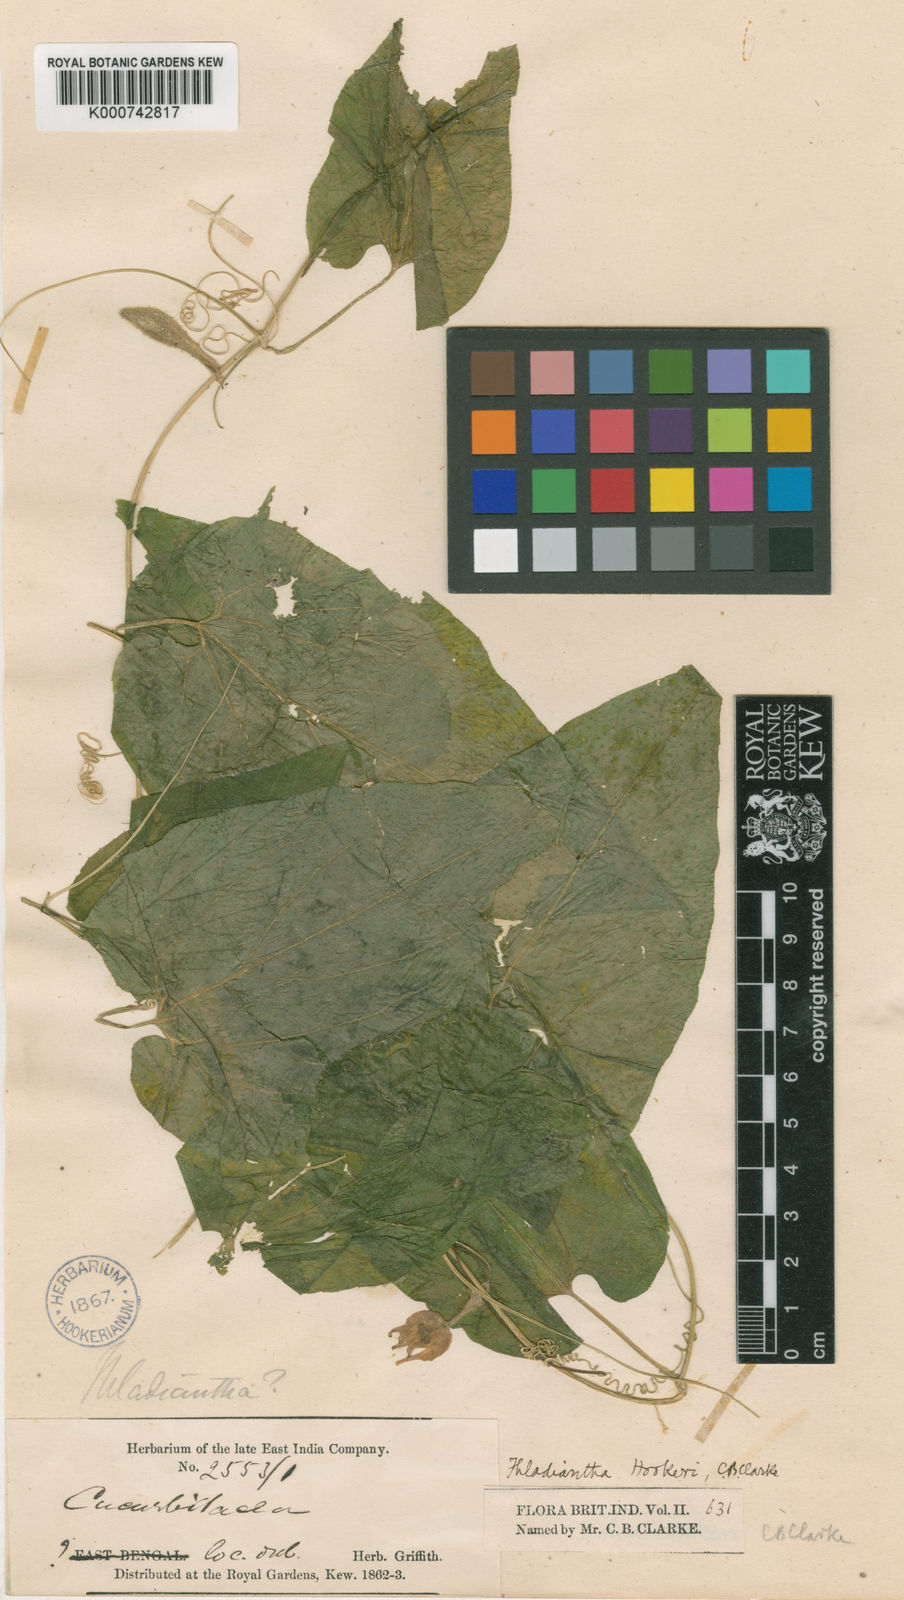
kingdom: Plantae
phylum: Tracheophyta
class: Magnoliopsida
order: Cucurbitales
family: Cucurbitaceae
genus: Thladiantha
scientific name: Thladiantha hookeri
